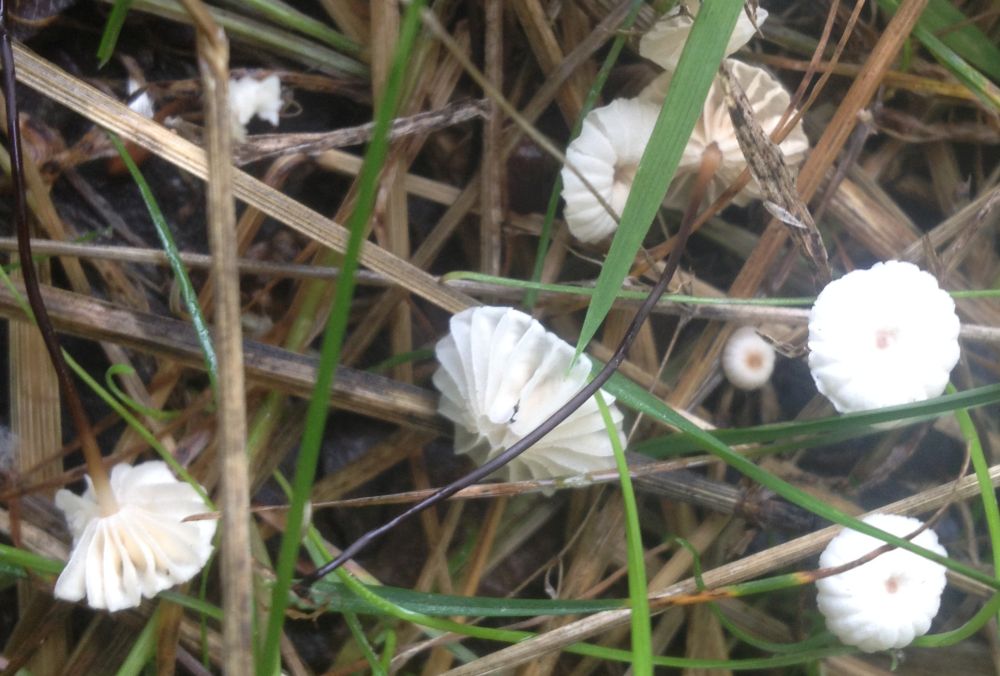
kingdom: Fungi
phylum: Basidiomycota
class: Agaricomycetes
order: Agaricales
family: Marasmiaceae
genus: Marasmius
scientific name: Marasmius rotula
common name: hjul-bruskhat
